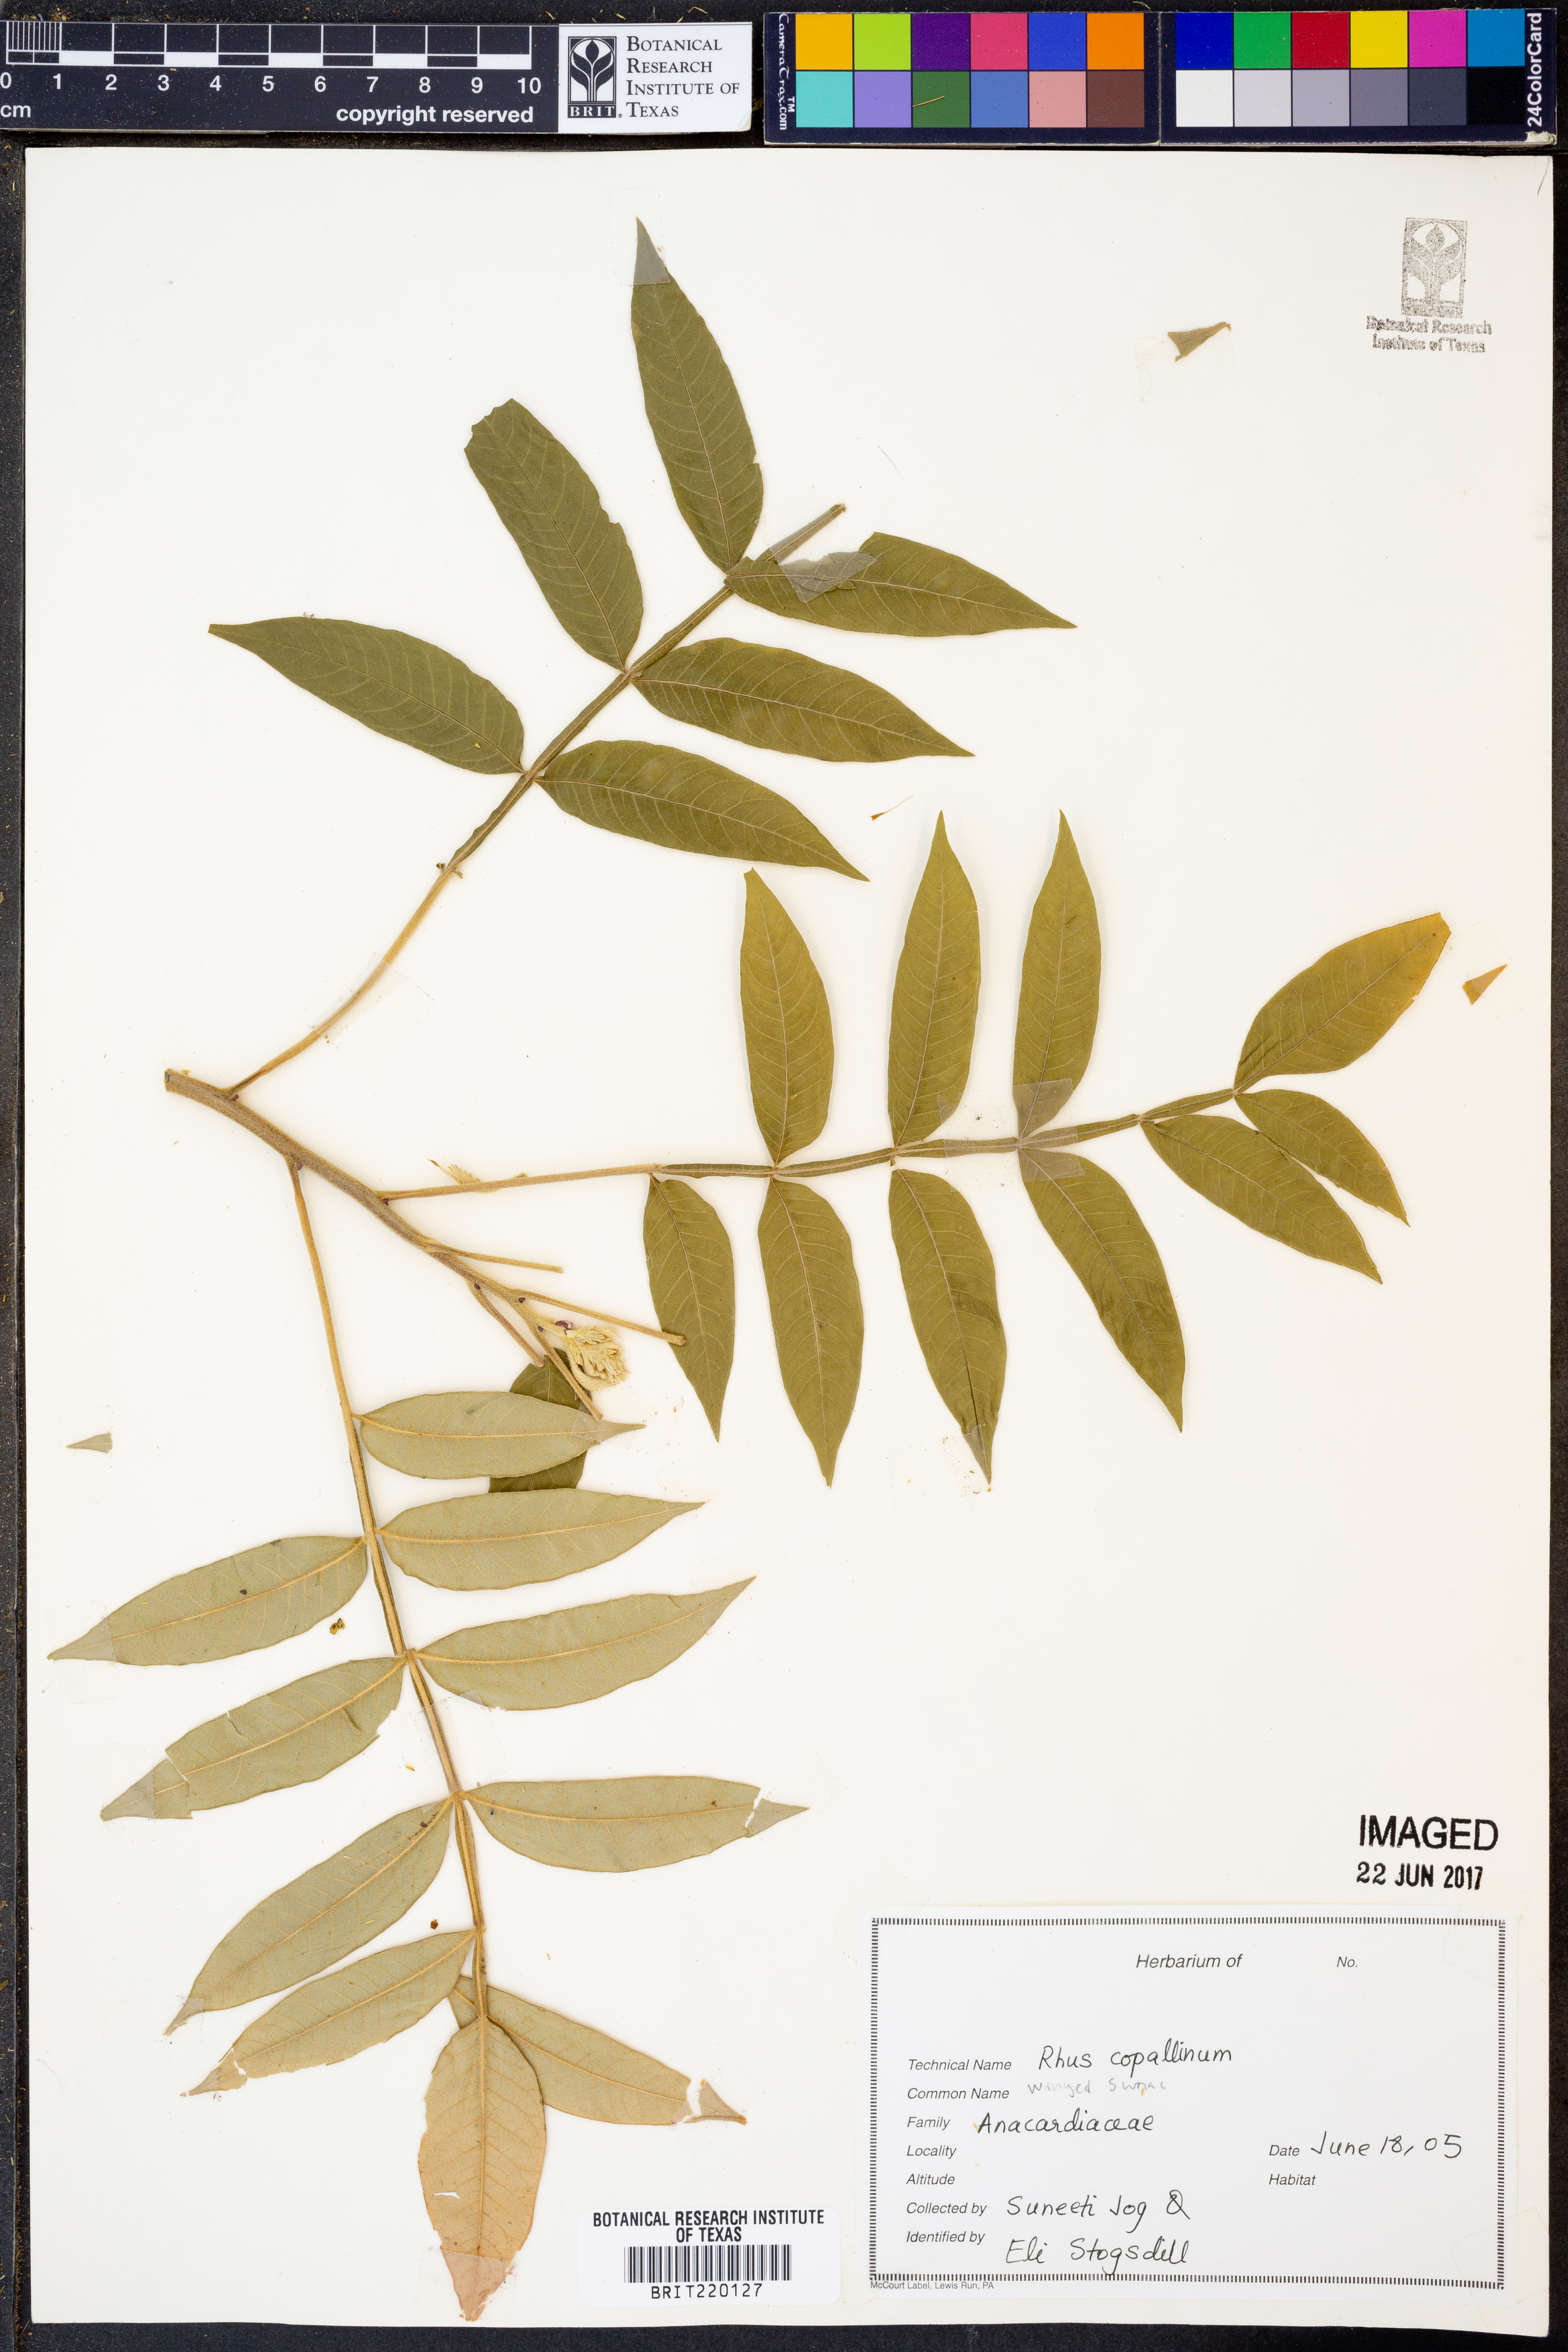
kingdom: Plantae
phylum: Tracheophyta
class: Magnoliopsida
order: Sapindales
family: Anacardiaceae
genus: Rhus
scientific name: Rhus copallina
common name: Shining sumac
